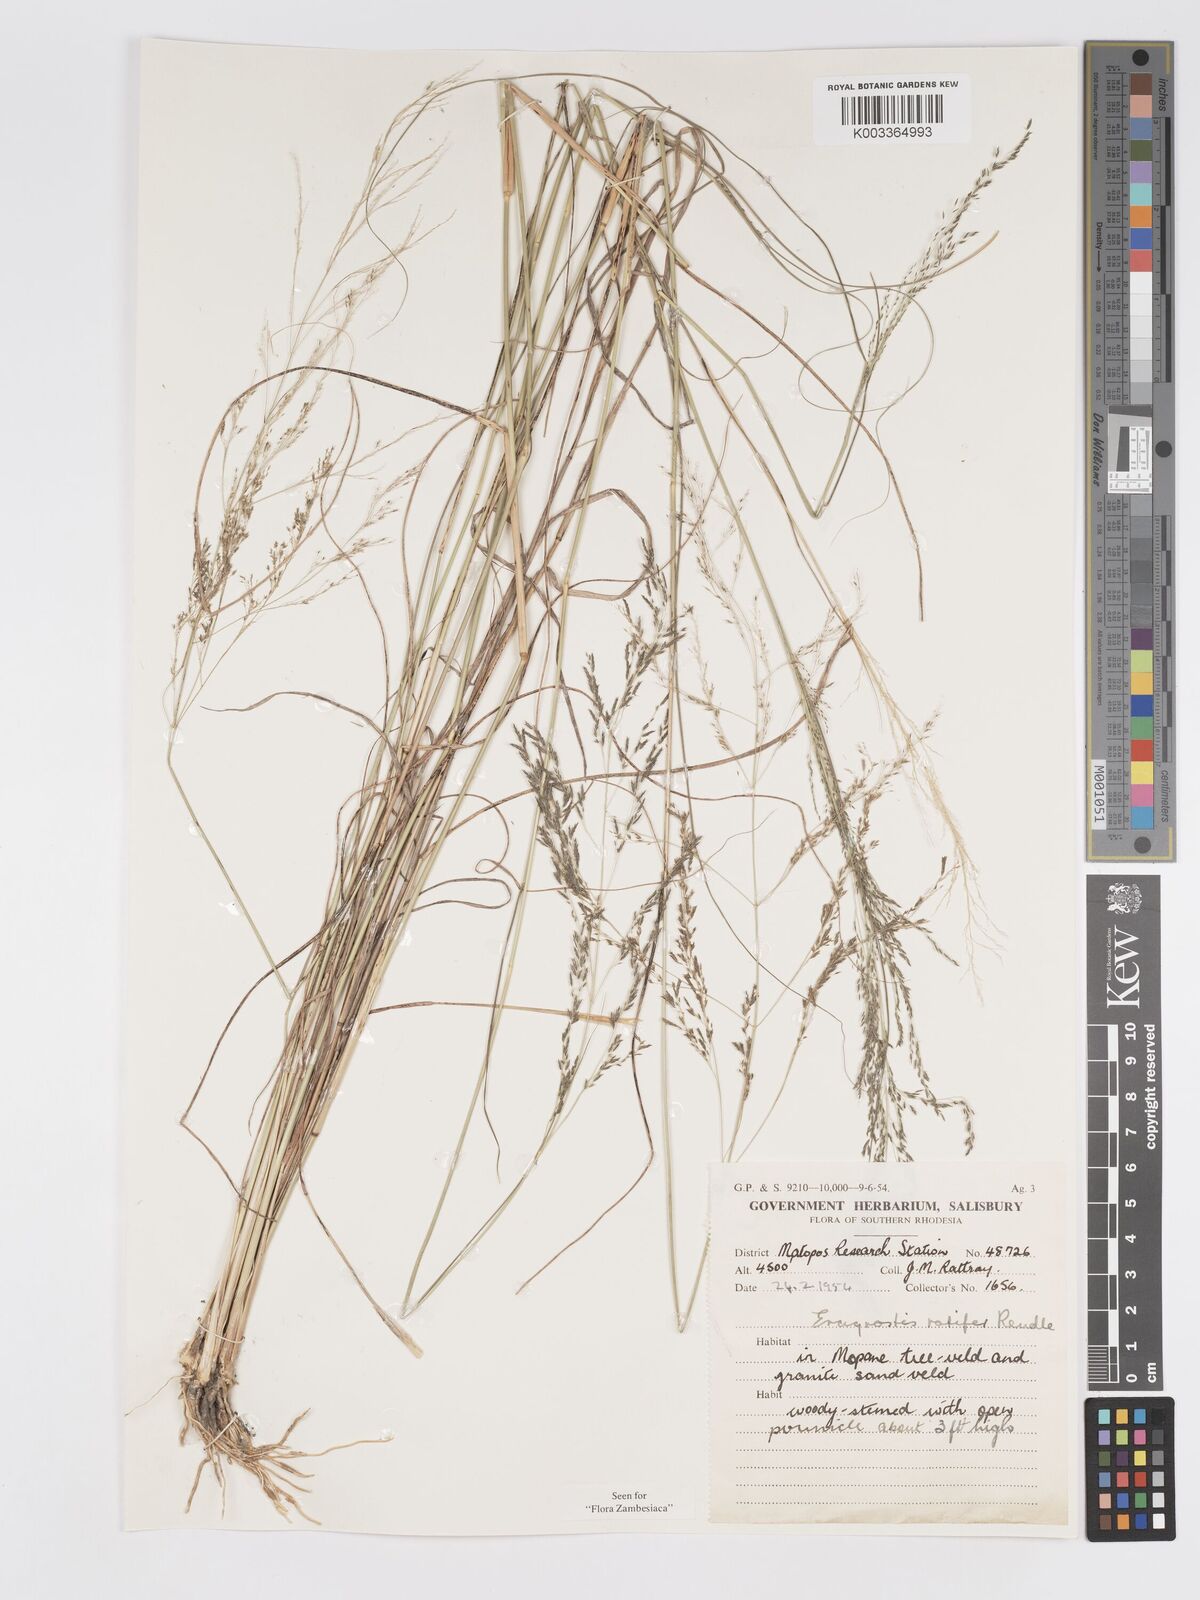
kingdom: Plantae
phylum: Tracheophyta
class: Liliopsida
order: Poales
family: Poaceae
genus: Eragrostis
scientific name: Eragrostis rotifer
